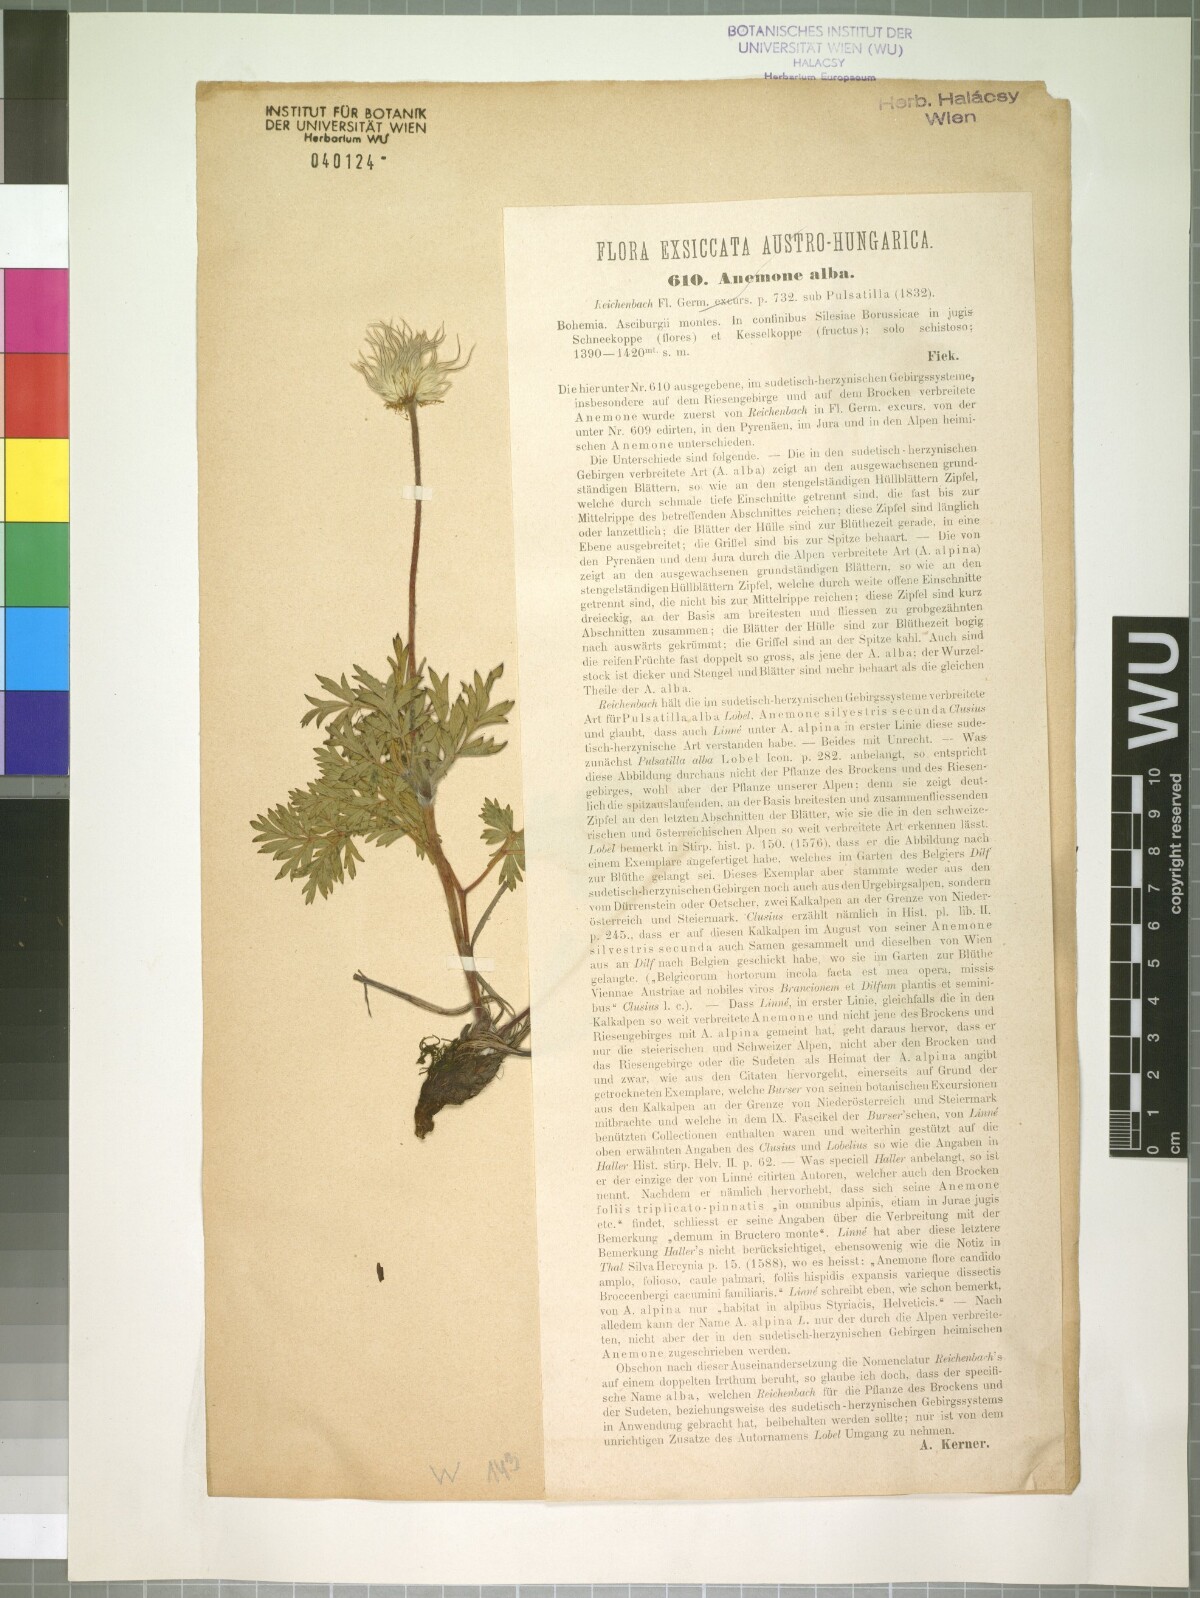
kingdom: Plantae
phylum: Tracheophyta
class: Magnoliopsida
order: Ranunculales
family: Ranunculaceae
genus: Pulsatilla
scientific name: Pulsatilla alpina
